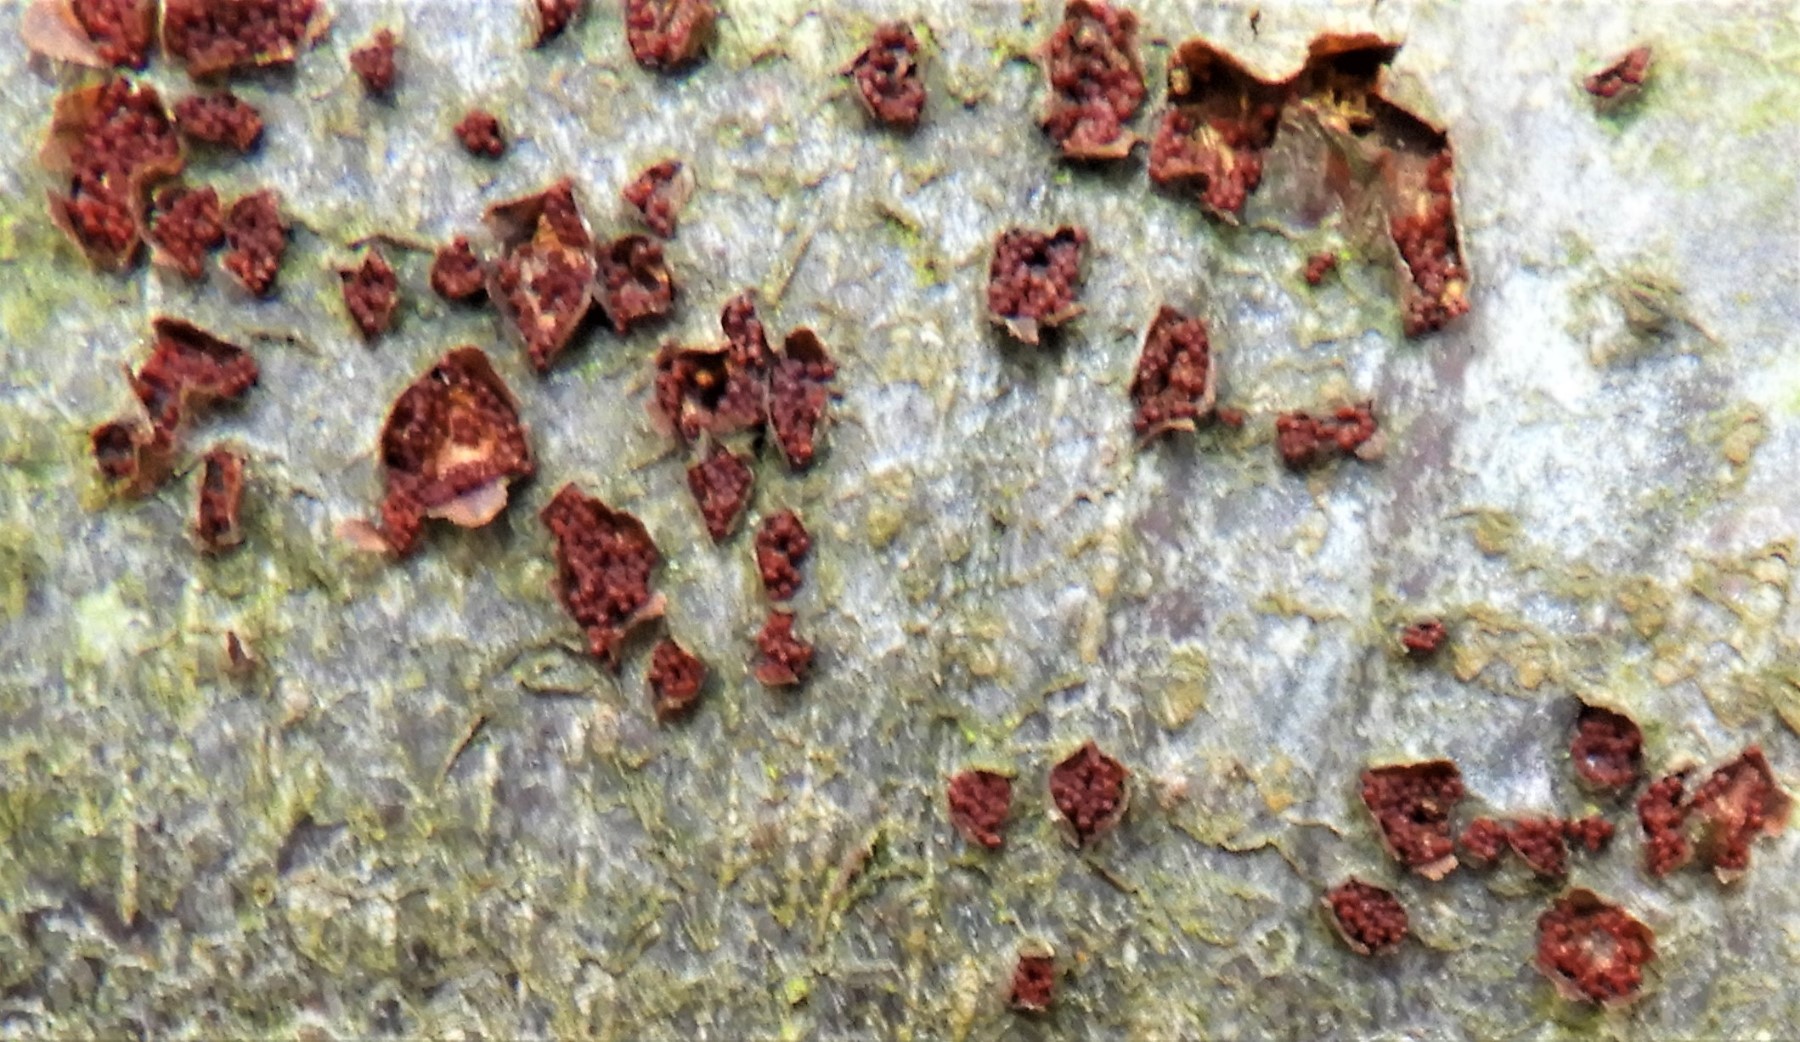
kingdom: Fungi
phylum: Ascomycota
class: Sordariomycetes
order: Hypocreales
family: Nectriaceae
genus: Neonectria
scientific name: Neonectria coccinea
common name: bøgebark-cinnobersvamp
